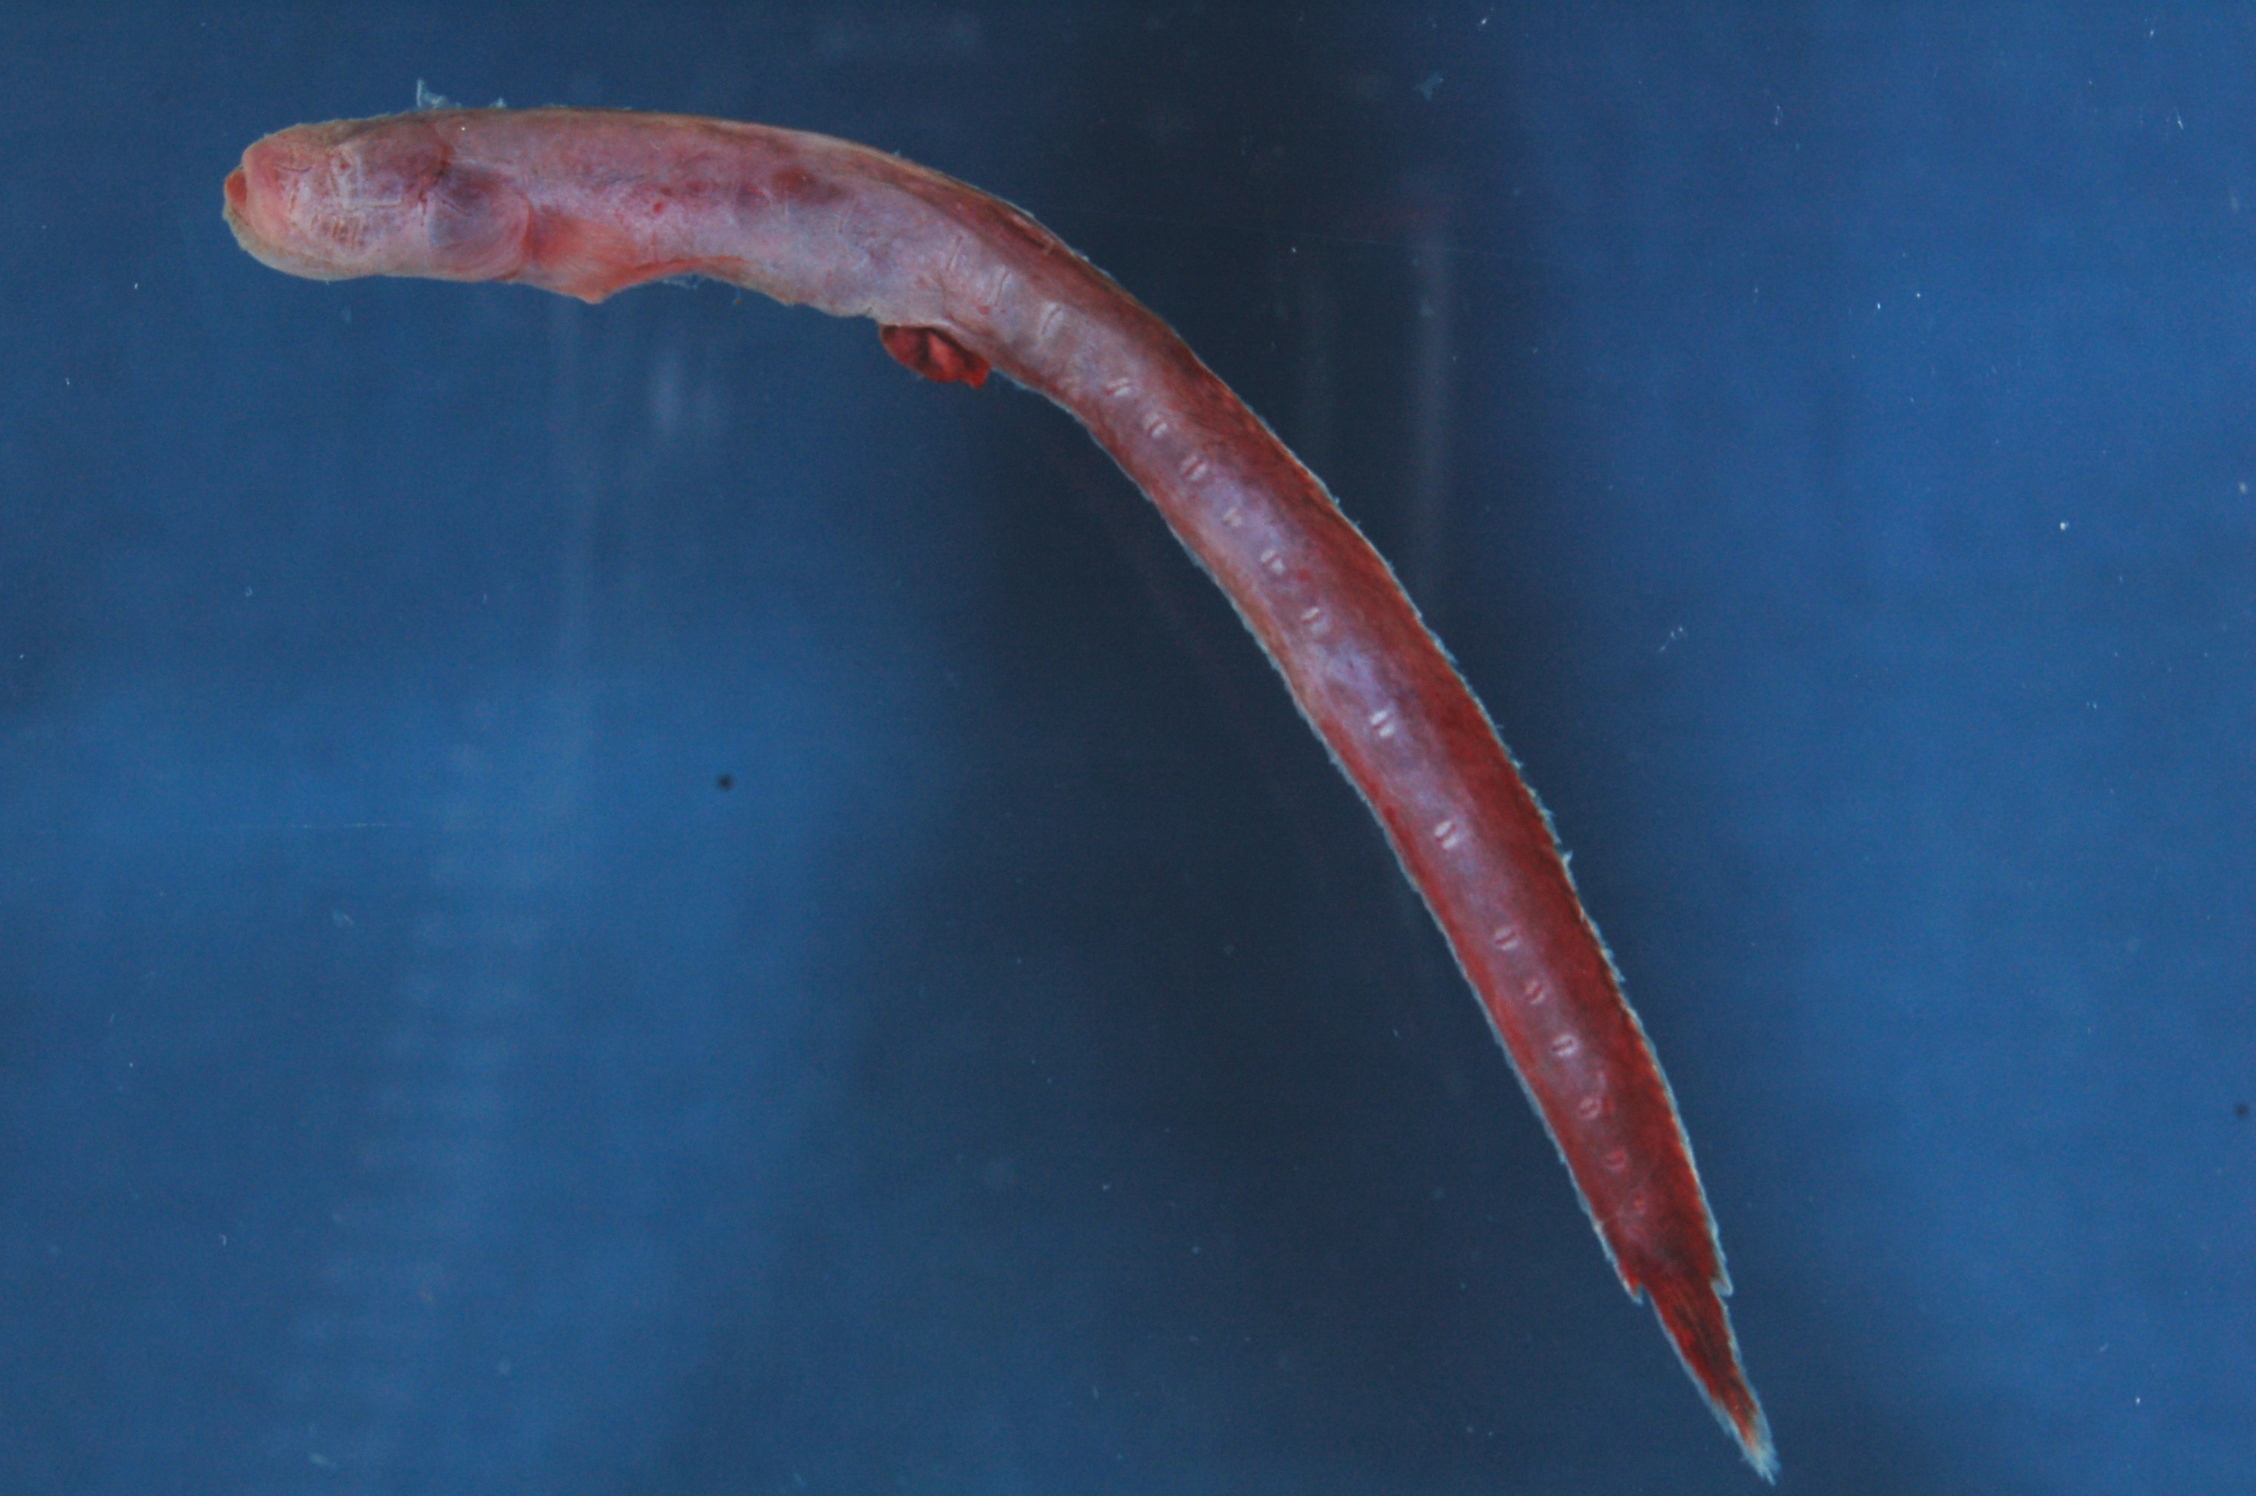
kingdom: Animalia
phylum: Chordata
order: Perciformes
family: Gobiidae
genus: Taenioides
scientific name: Taenioides gracilis
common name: Slender eel goby
